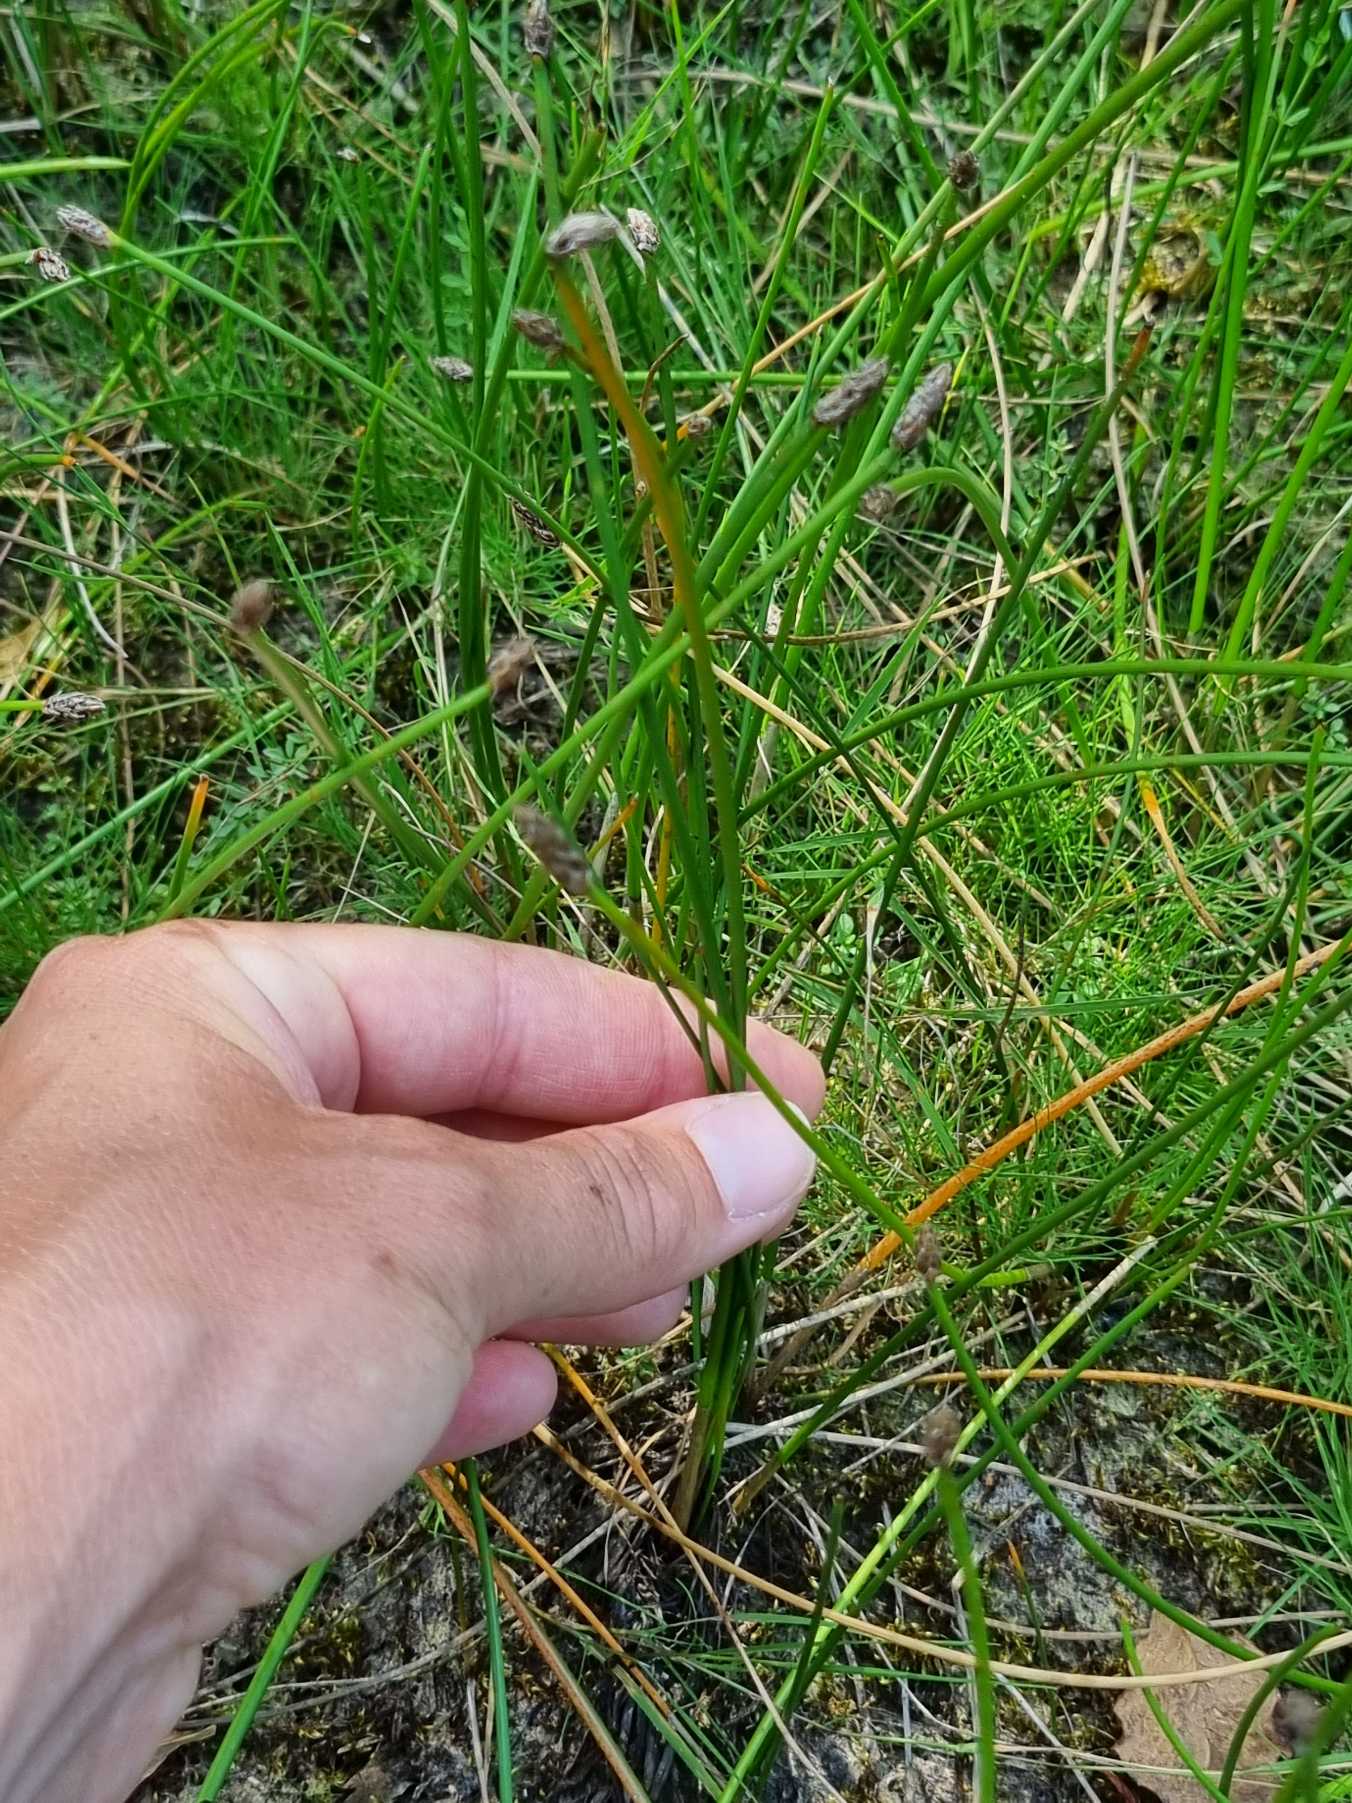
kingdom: Plantae
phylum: Tracheophyta
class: Liliopsida
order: Poales
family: Cyperaceae
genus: Eleocharis
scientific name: Eleocharis
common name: Sumpstråslægten
